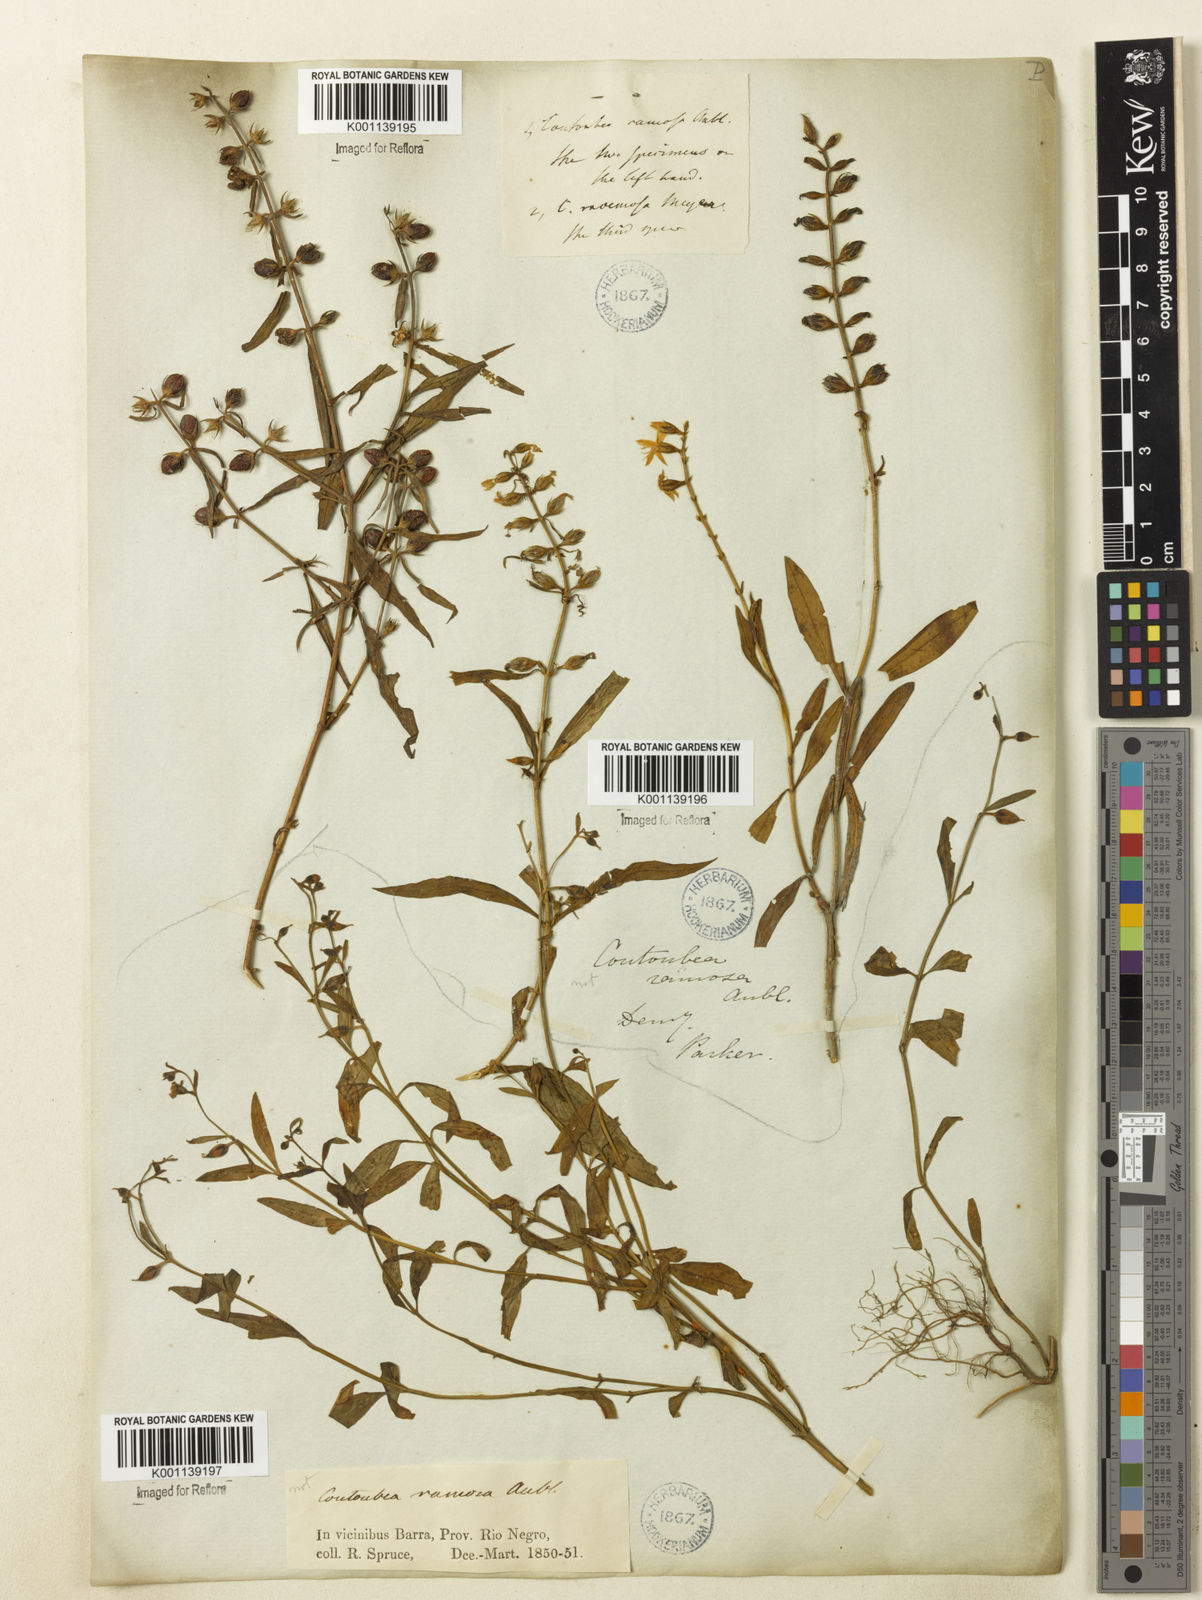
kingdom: Plantae
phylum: Tracheophyta
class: Magnoliopsida
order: Gentianales
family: Gentianaceae
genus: Coutoubea
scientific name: Coutoubea ramosa
